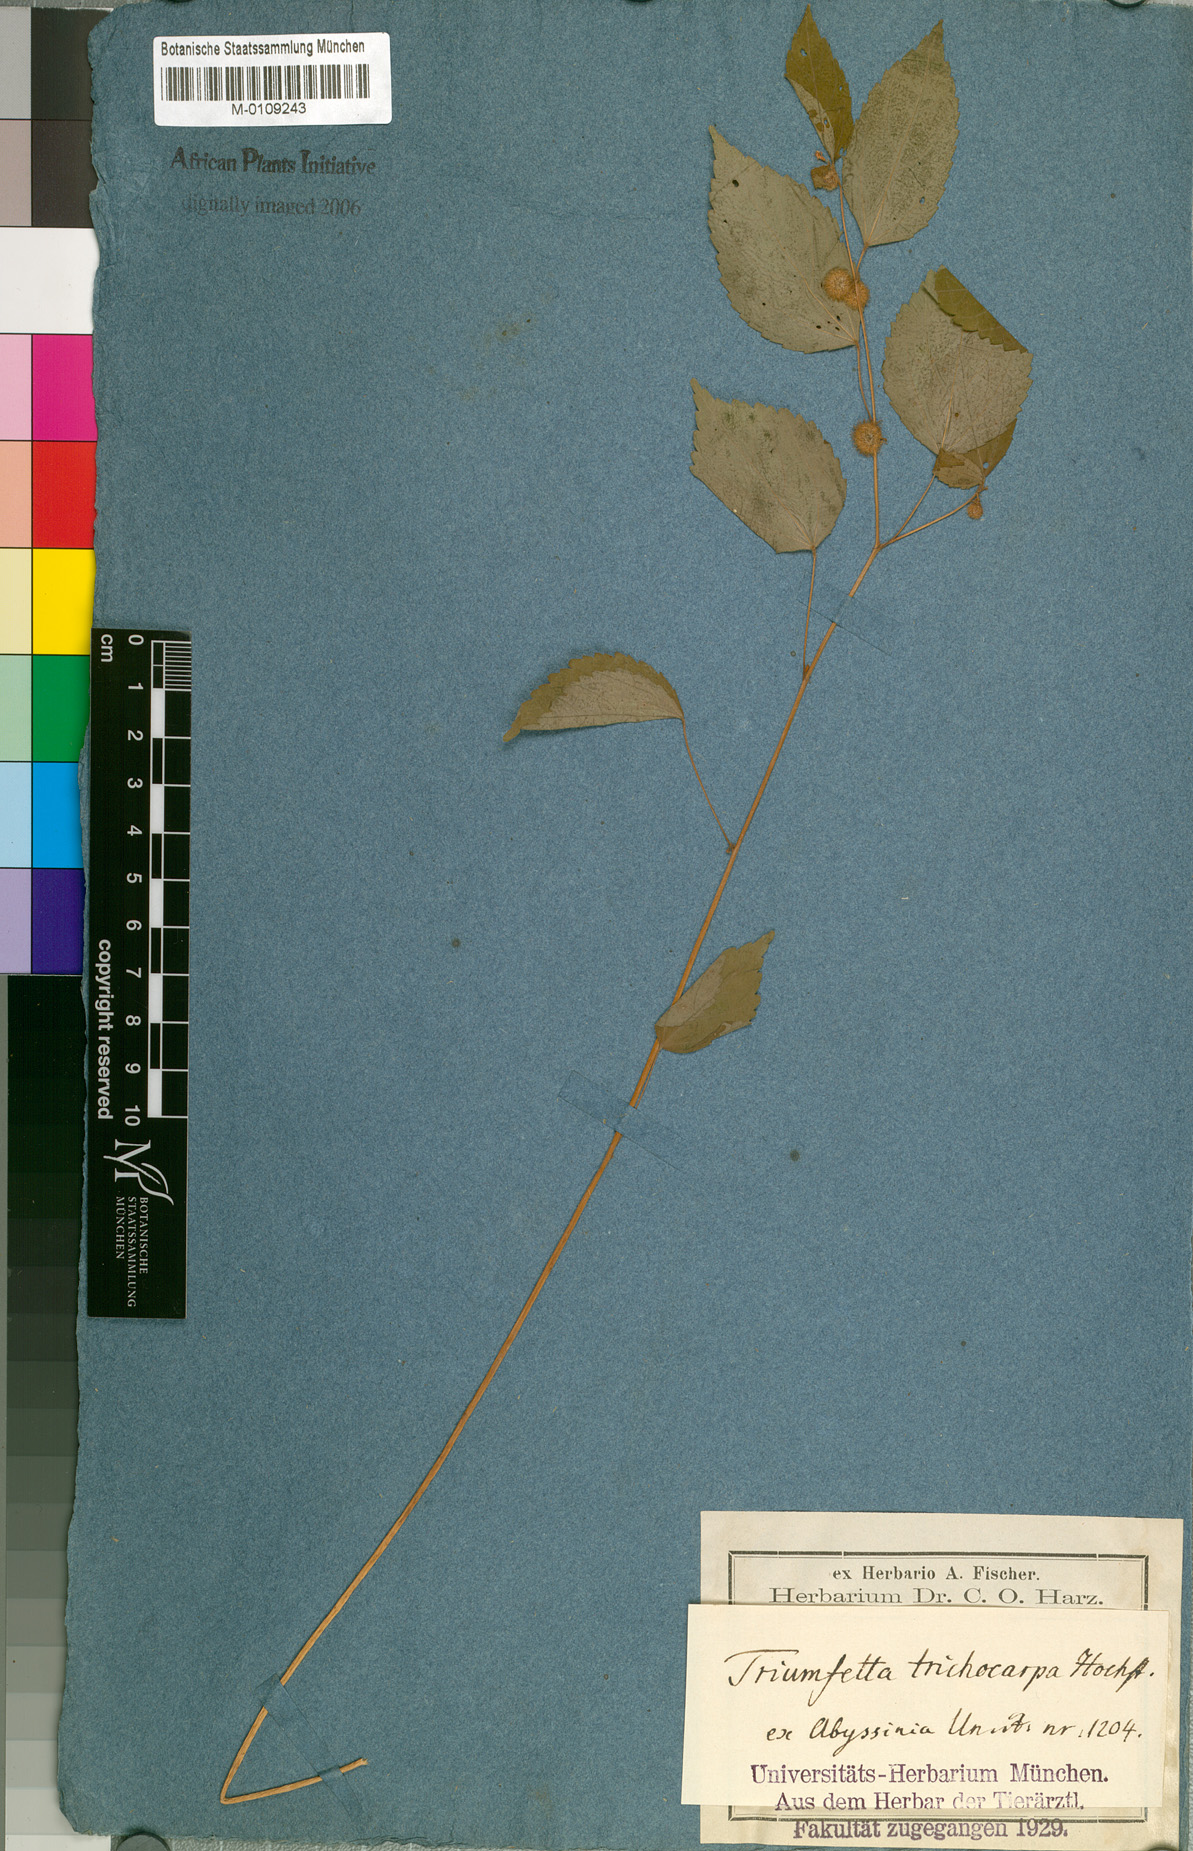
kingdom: Plantae
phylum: Tracheophyta
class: Magnoliopsida
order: Malvales
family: Malvaceae
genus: Triumfetta
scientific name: Triumfetta trichocarpa
